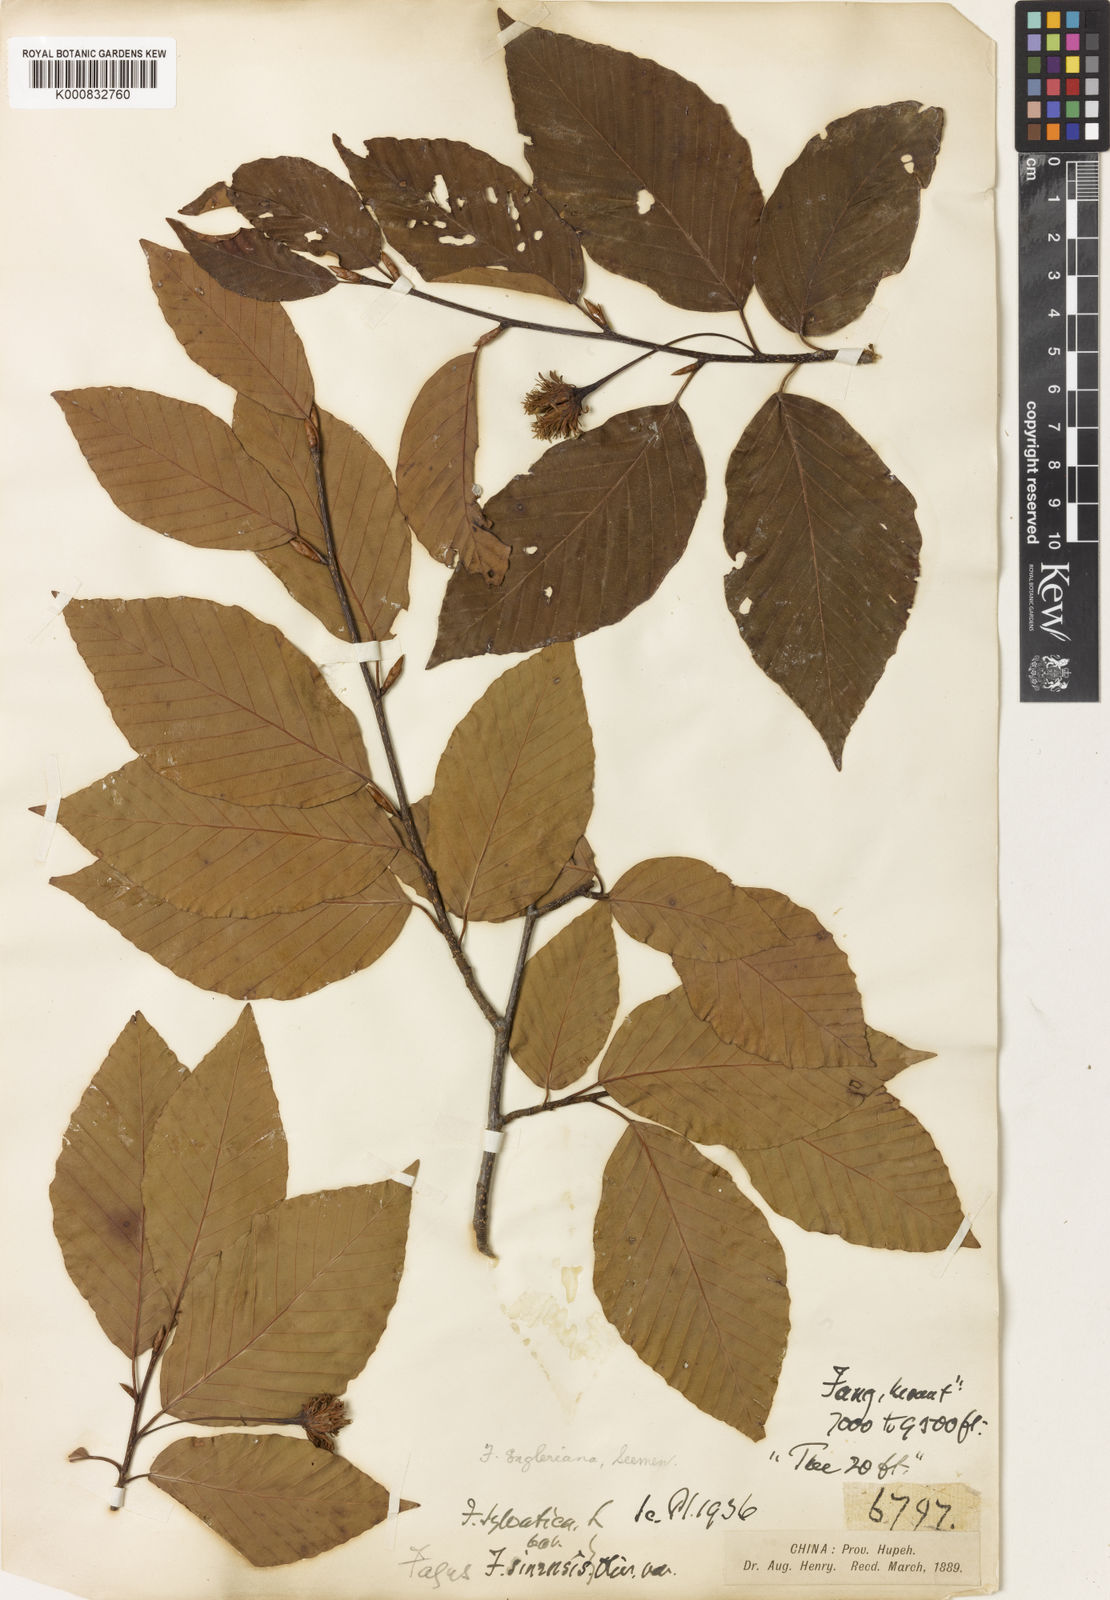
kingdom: Plantae
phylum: Tracheophyta
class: Magnoliopsida
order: Fagales
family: Fagaceae
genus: Fagus
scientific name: Fagus engleriana
